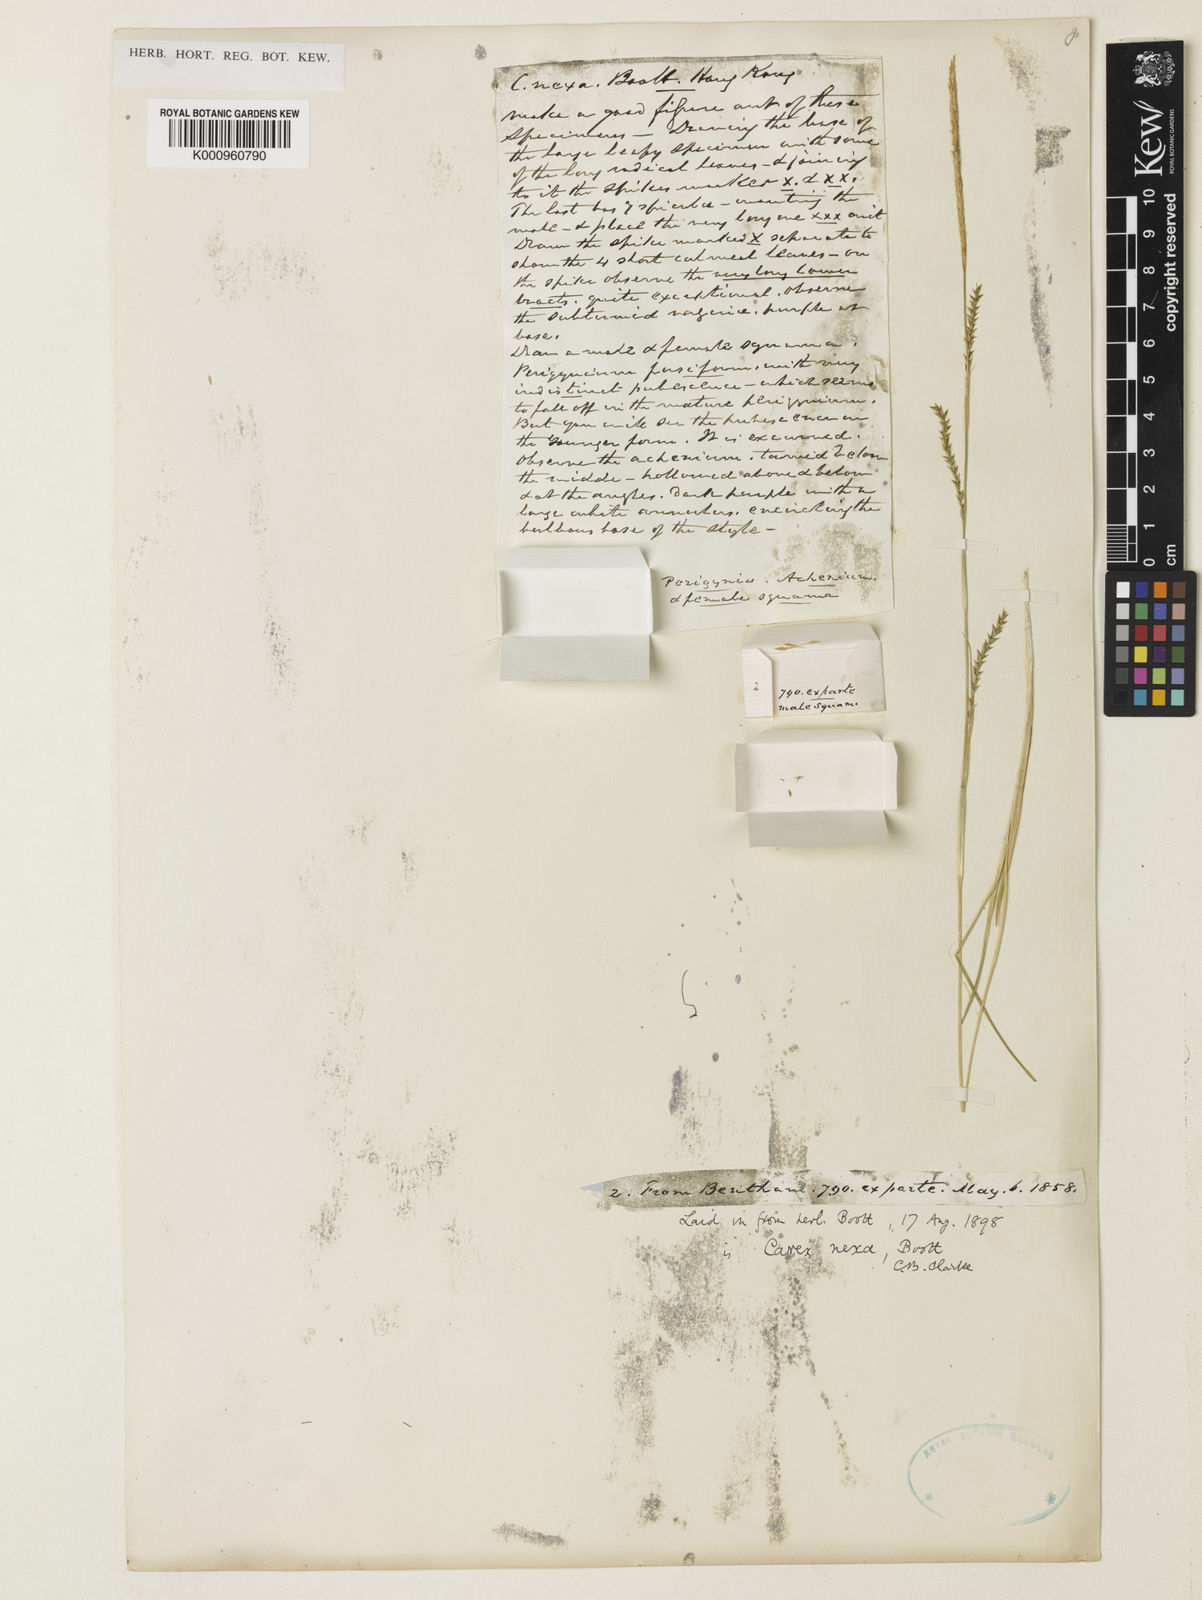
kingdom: Plantae
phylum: Tracheophyta
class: Liliopsida
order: Poales
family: Cyperaceae
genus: Carex
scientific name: Carex
